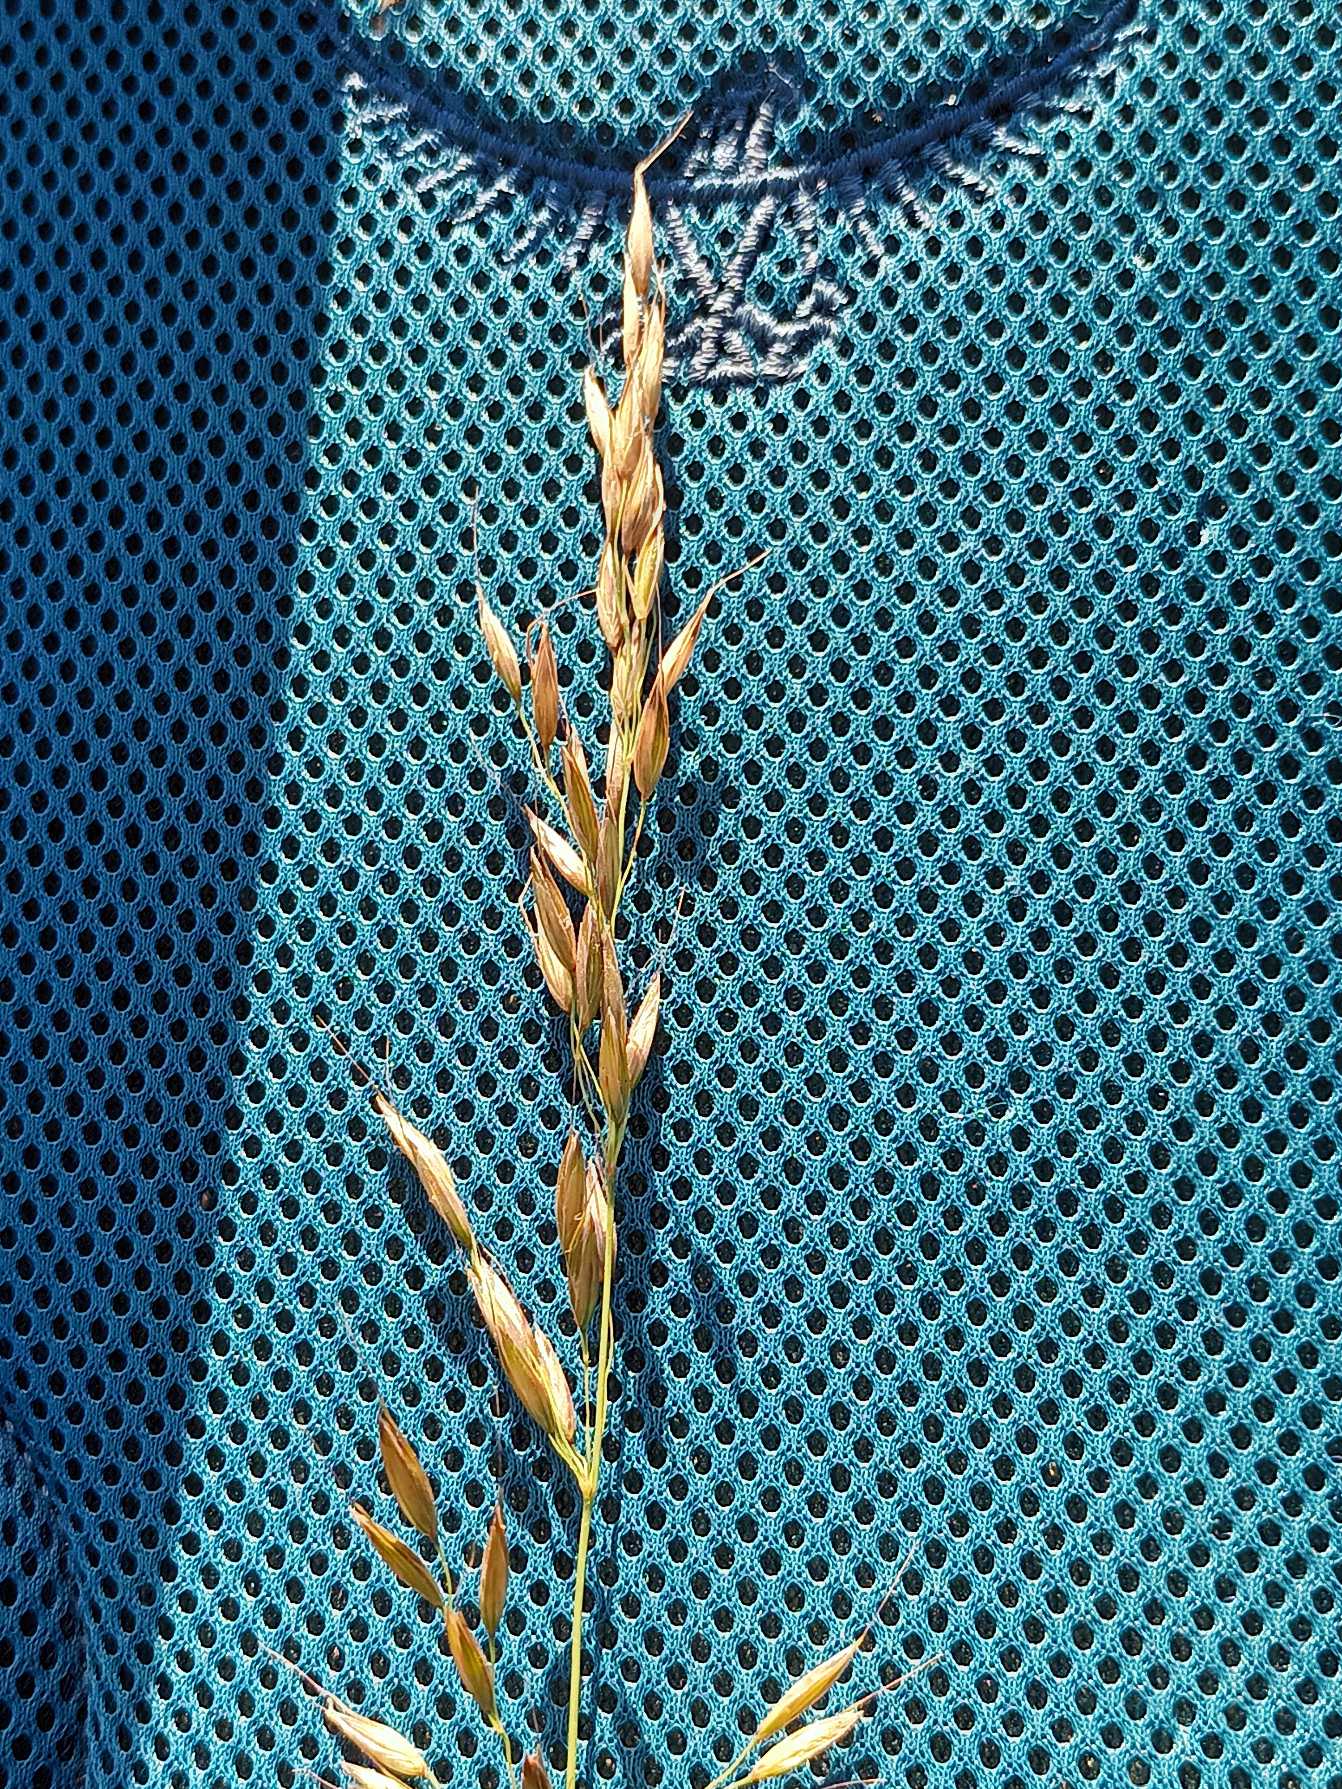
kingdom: Plantae
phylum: Tracheophyta
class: Liliopsida
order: Poales
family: Poaceae
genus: Arrhenatherum
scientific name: Arrhenatherum elatius
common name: Draphavre
